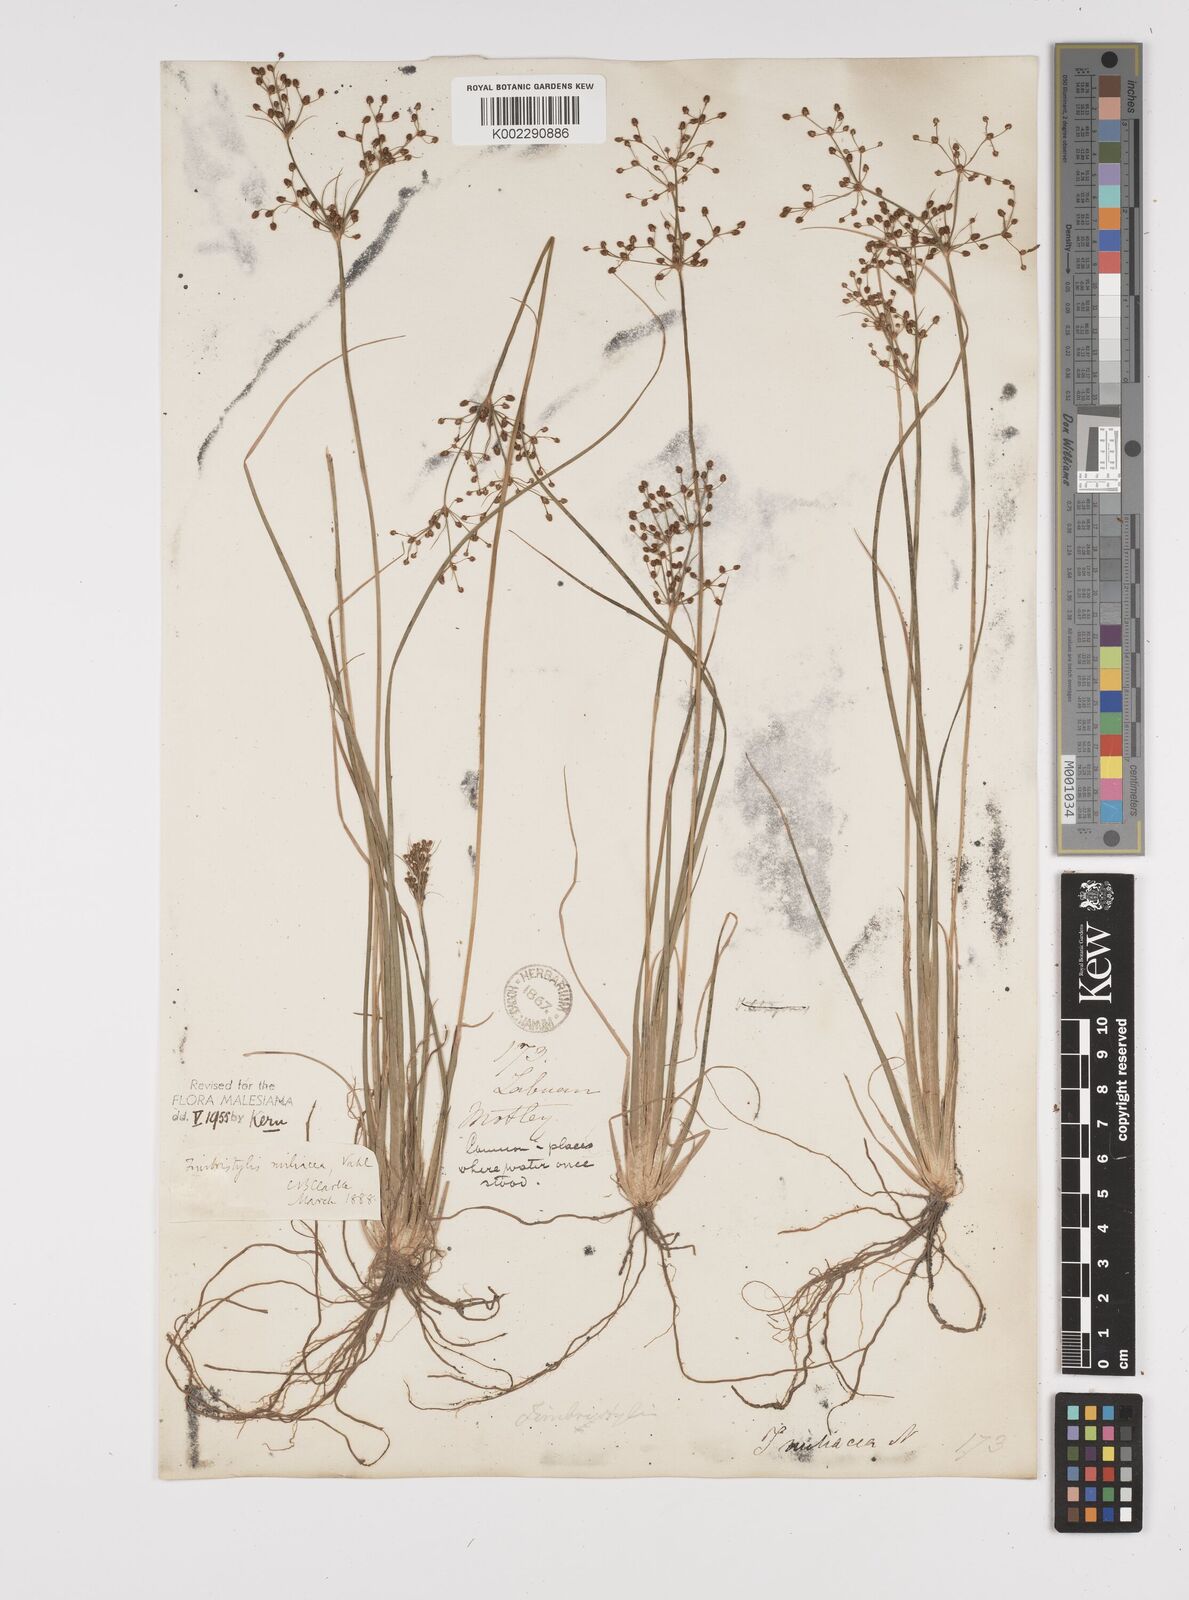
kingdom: Plantae
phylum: Tracheophyta
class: Liliopsida
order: Poales
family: Cyperaceae
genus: Fimbristylis
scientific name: Fimbristylis littoralis
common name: Fimbry
